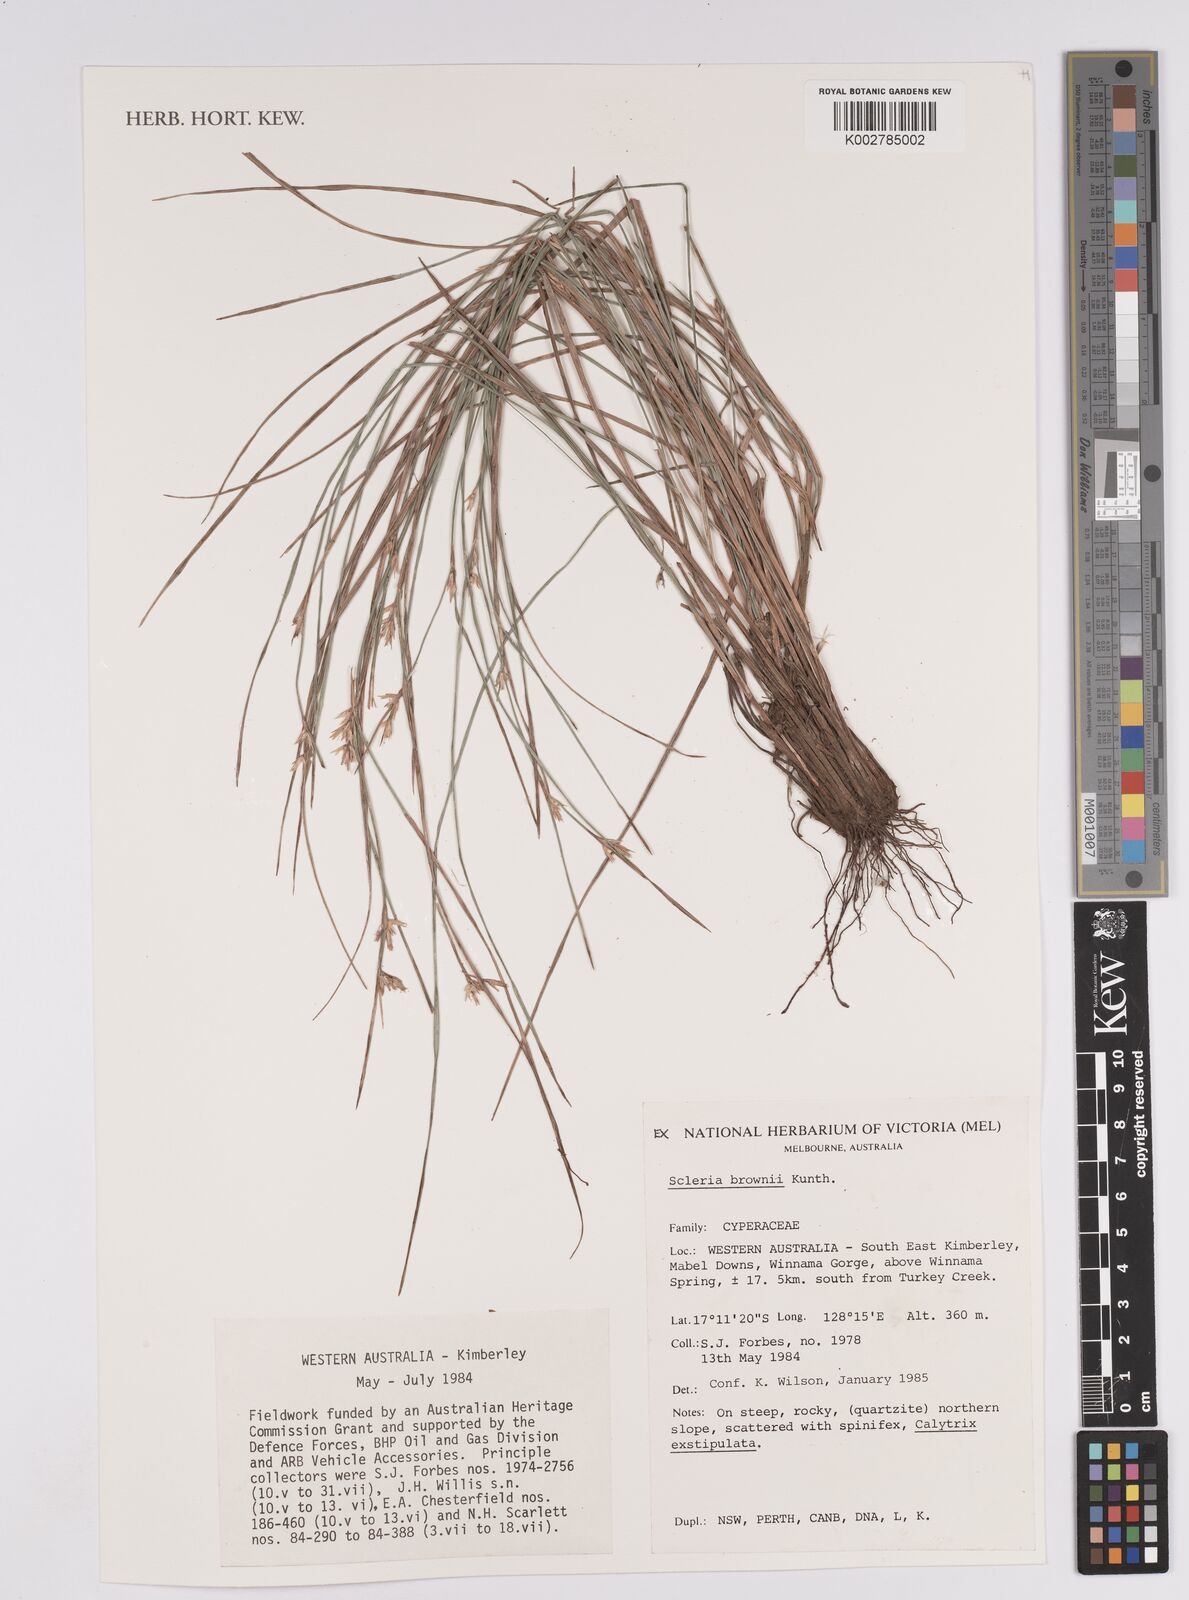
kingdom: Plantae
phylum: Tracheophyta
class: Liliopsida
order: Poales
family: Cyperaceae
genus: Scleria
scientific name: Scleria brownii
